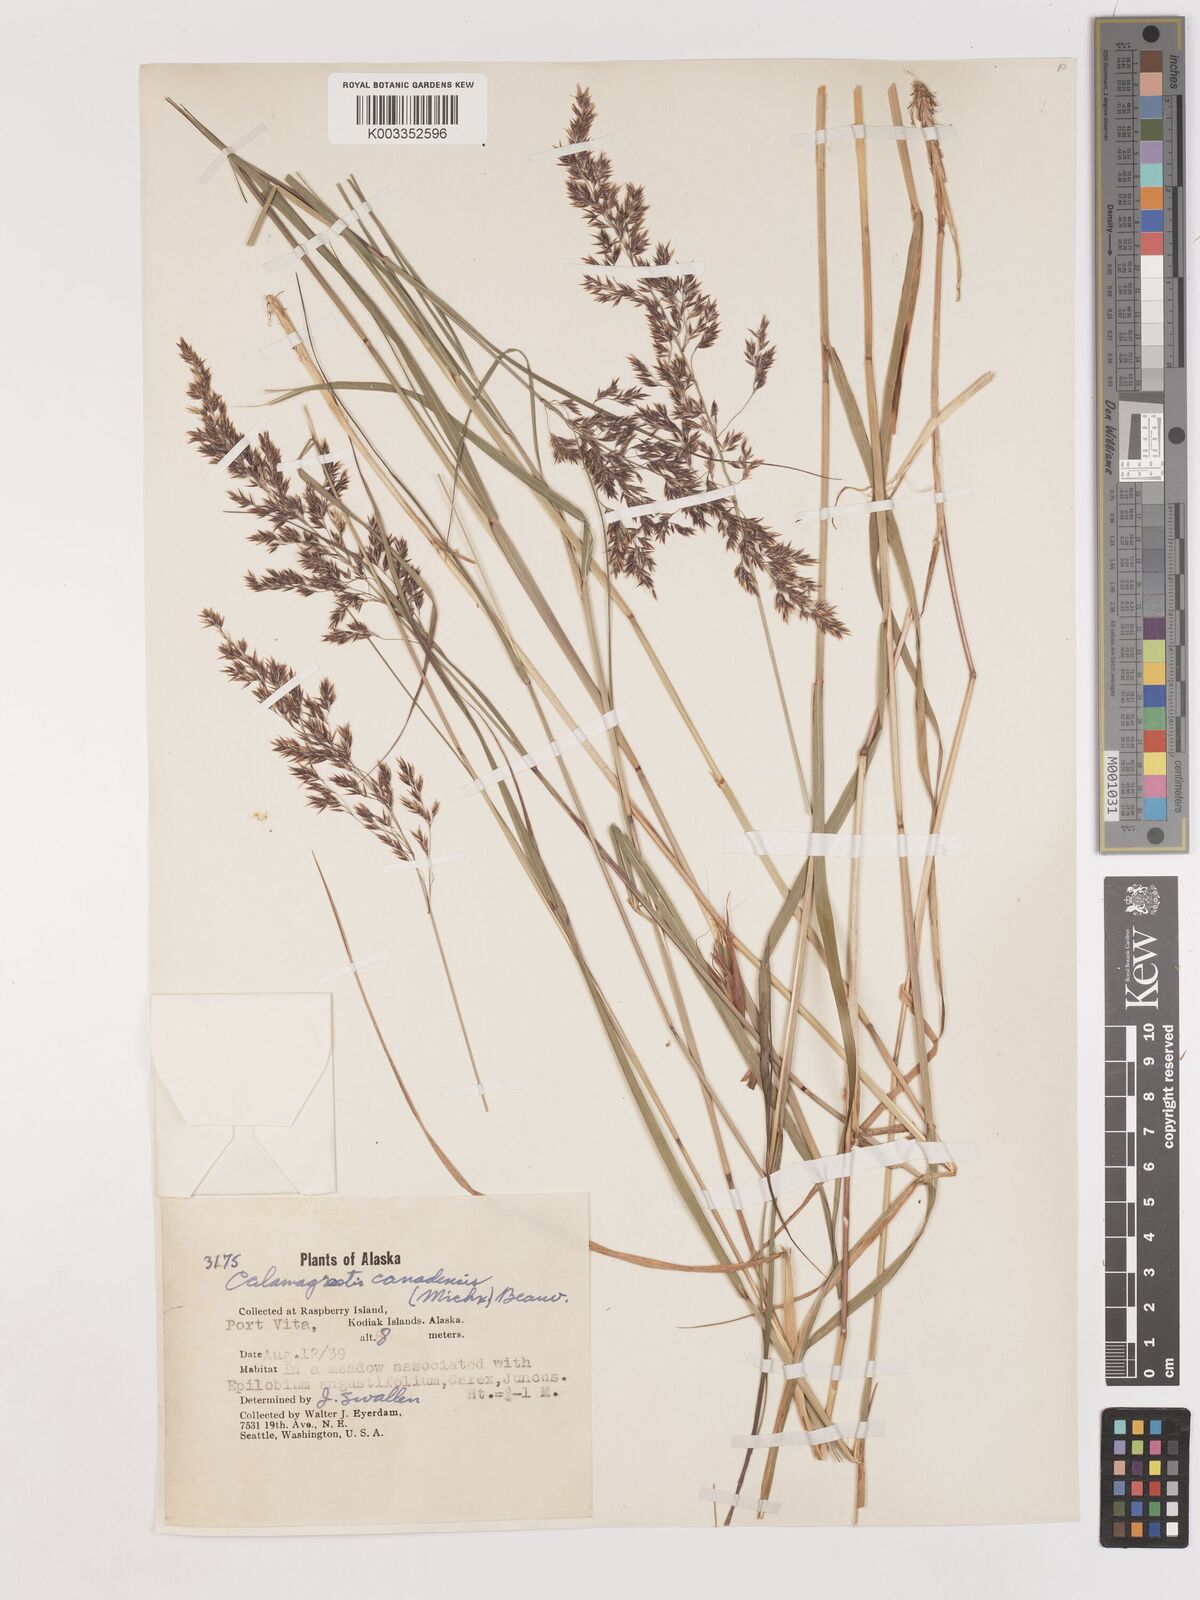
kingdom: Plantae
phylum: Tracheophyta
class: Liliopsida
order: Poales
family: Poaceae
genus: Calamagrostis
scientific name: Calamagrostis canadensis
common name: Canada bluejoint
